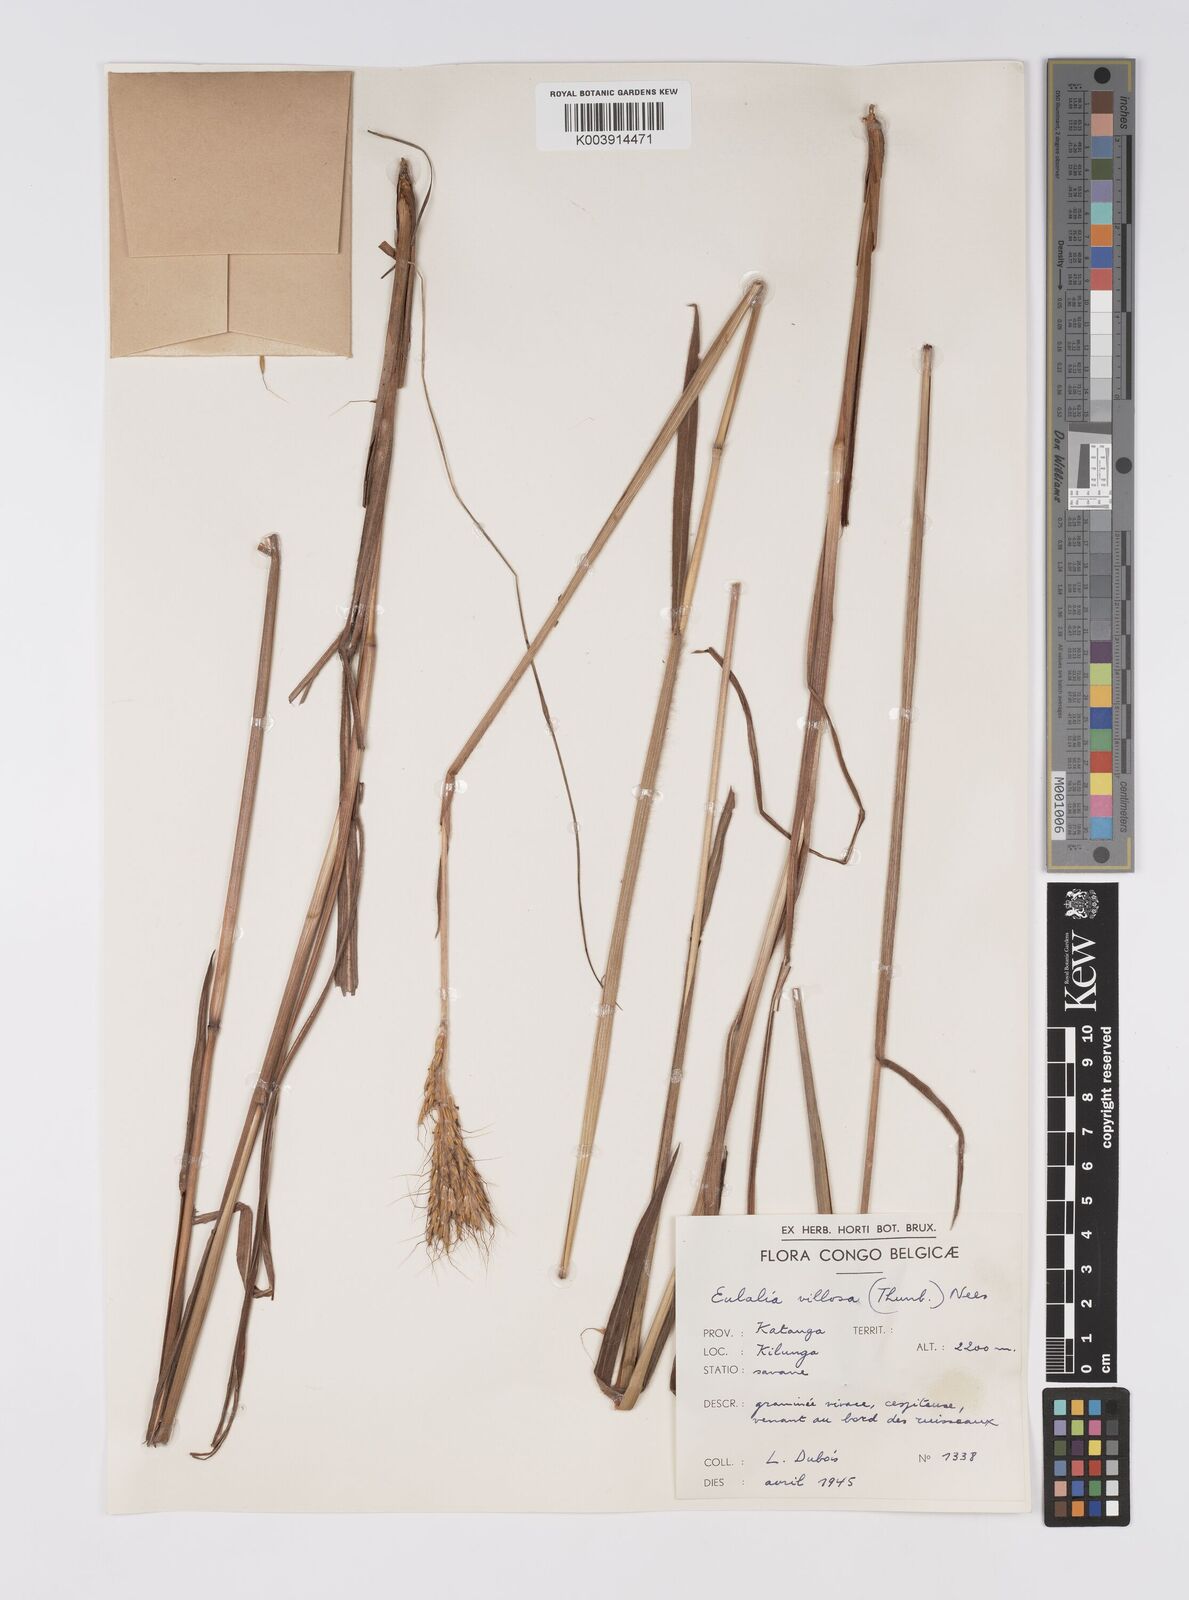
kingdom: Plantae
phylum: Tracheophyta
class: Liliopsida
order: Poales
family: Poaceae
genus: Eulalia
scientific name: Eulalia villosa
